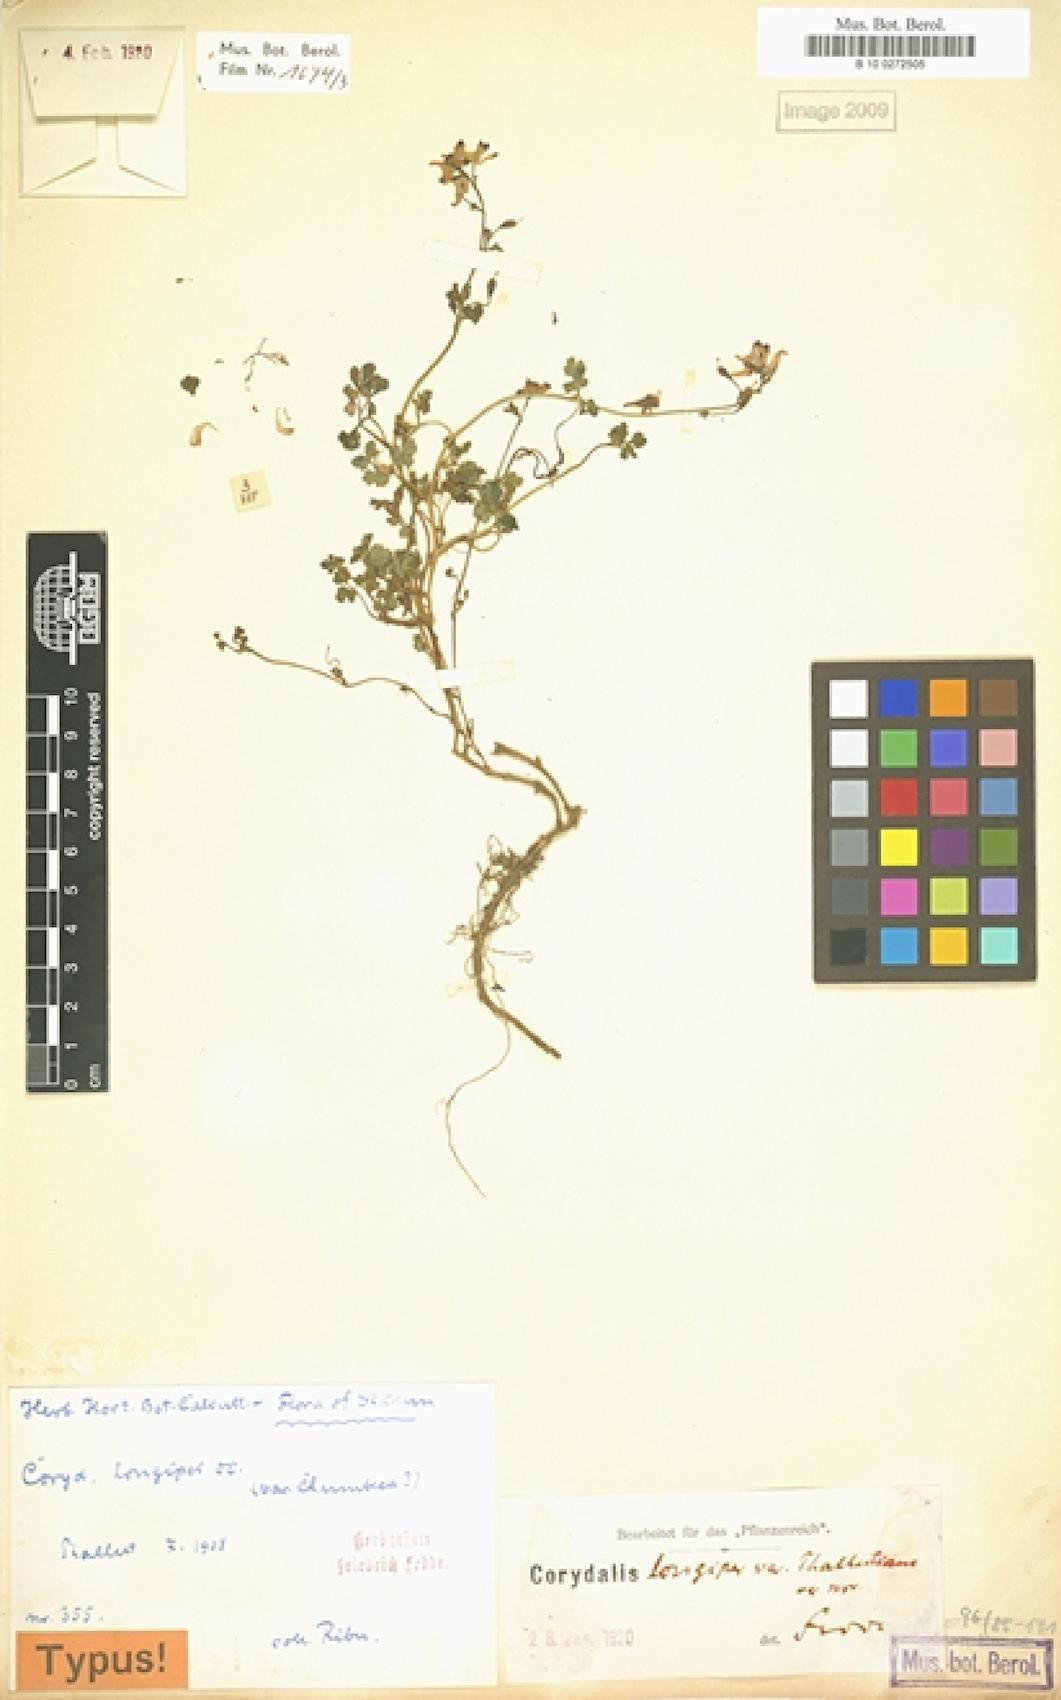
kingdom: Plantae
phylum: Tracheophyta
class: Magnoliopsida
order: Ranunculales
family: Papaveraceae
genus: Corydalis
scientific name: Corydalis pseudolongipes
